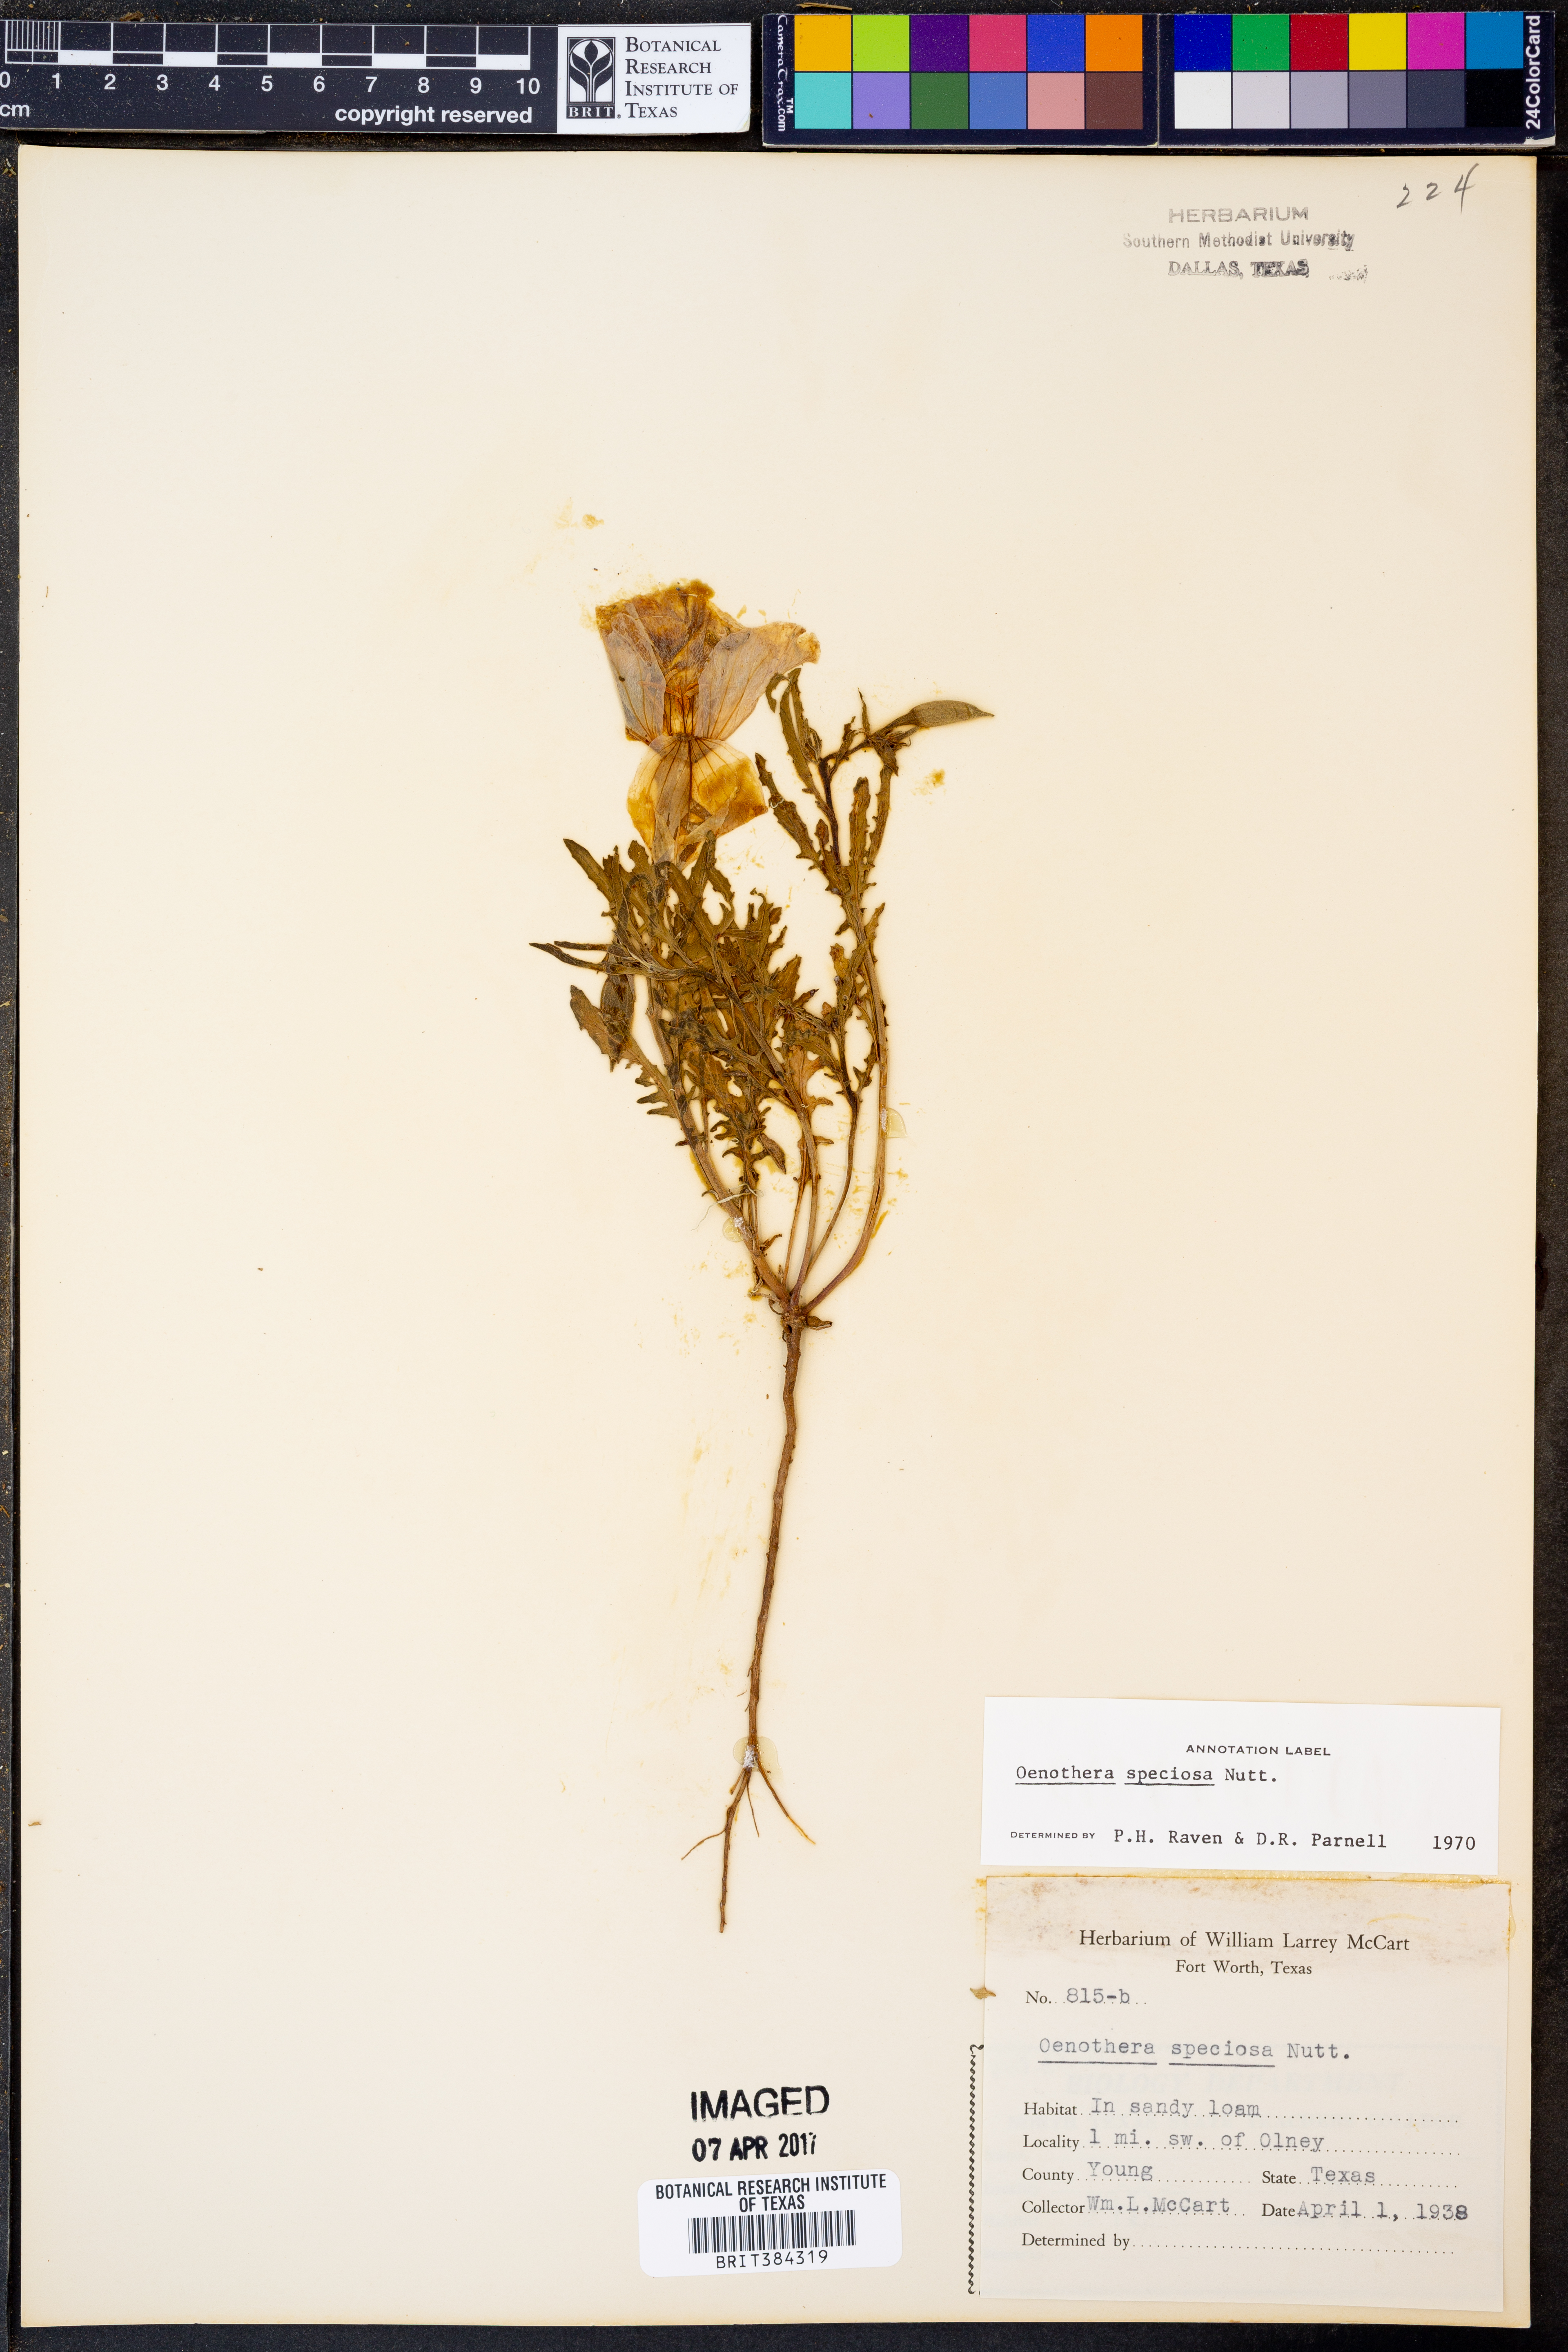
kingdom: Plantae
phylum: Tracheophyta
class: Magnoliopsida
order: Myrtales
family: Onagraceae
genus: Oenothera
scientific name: Oenothera speciosa
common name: White evening-primrose
